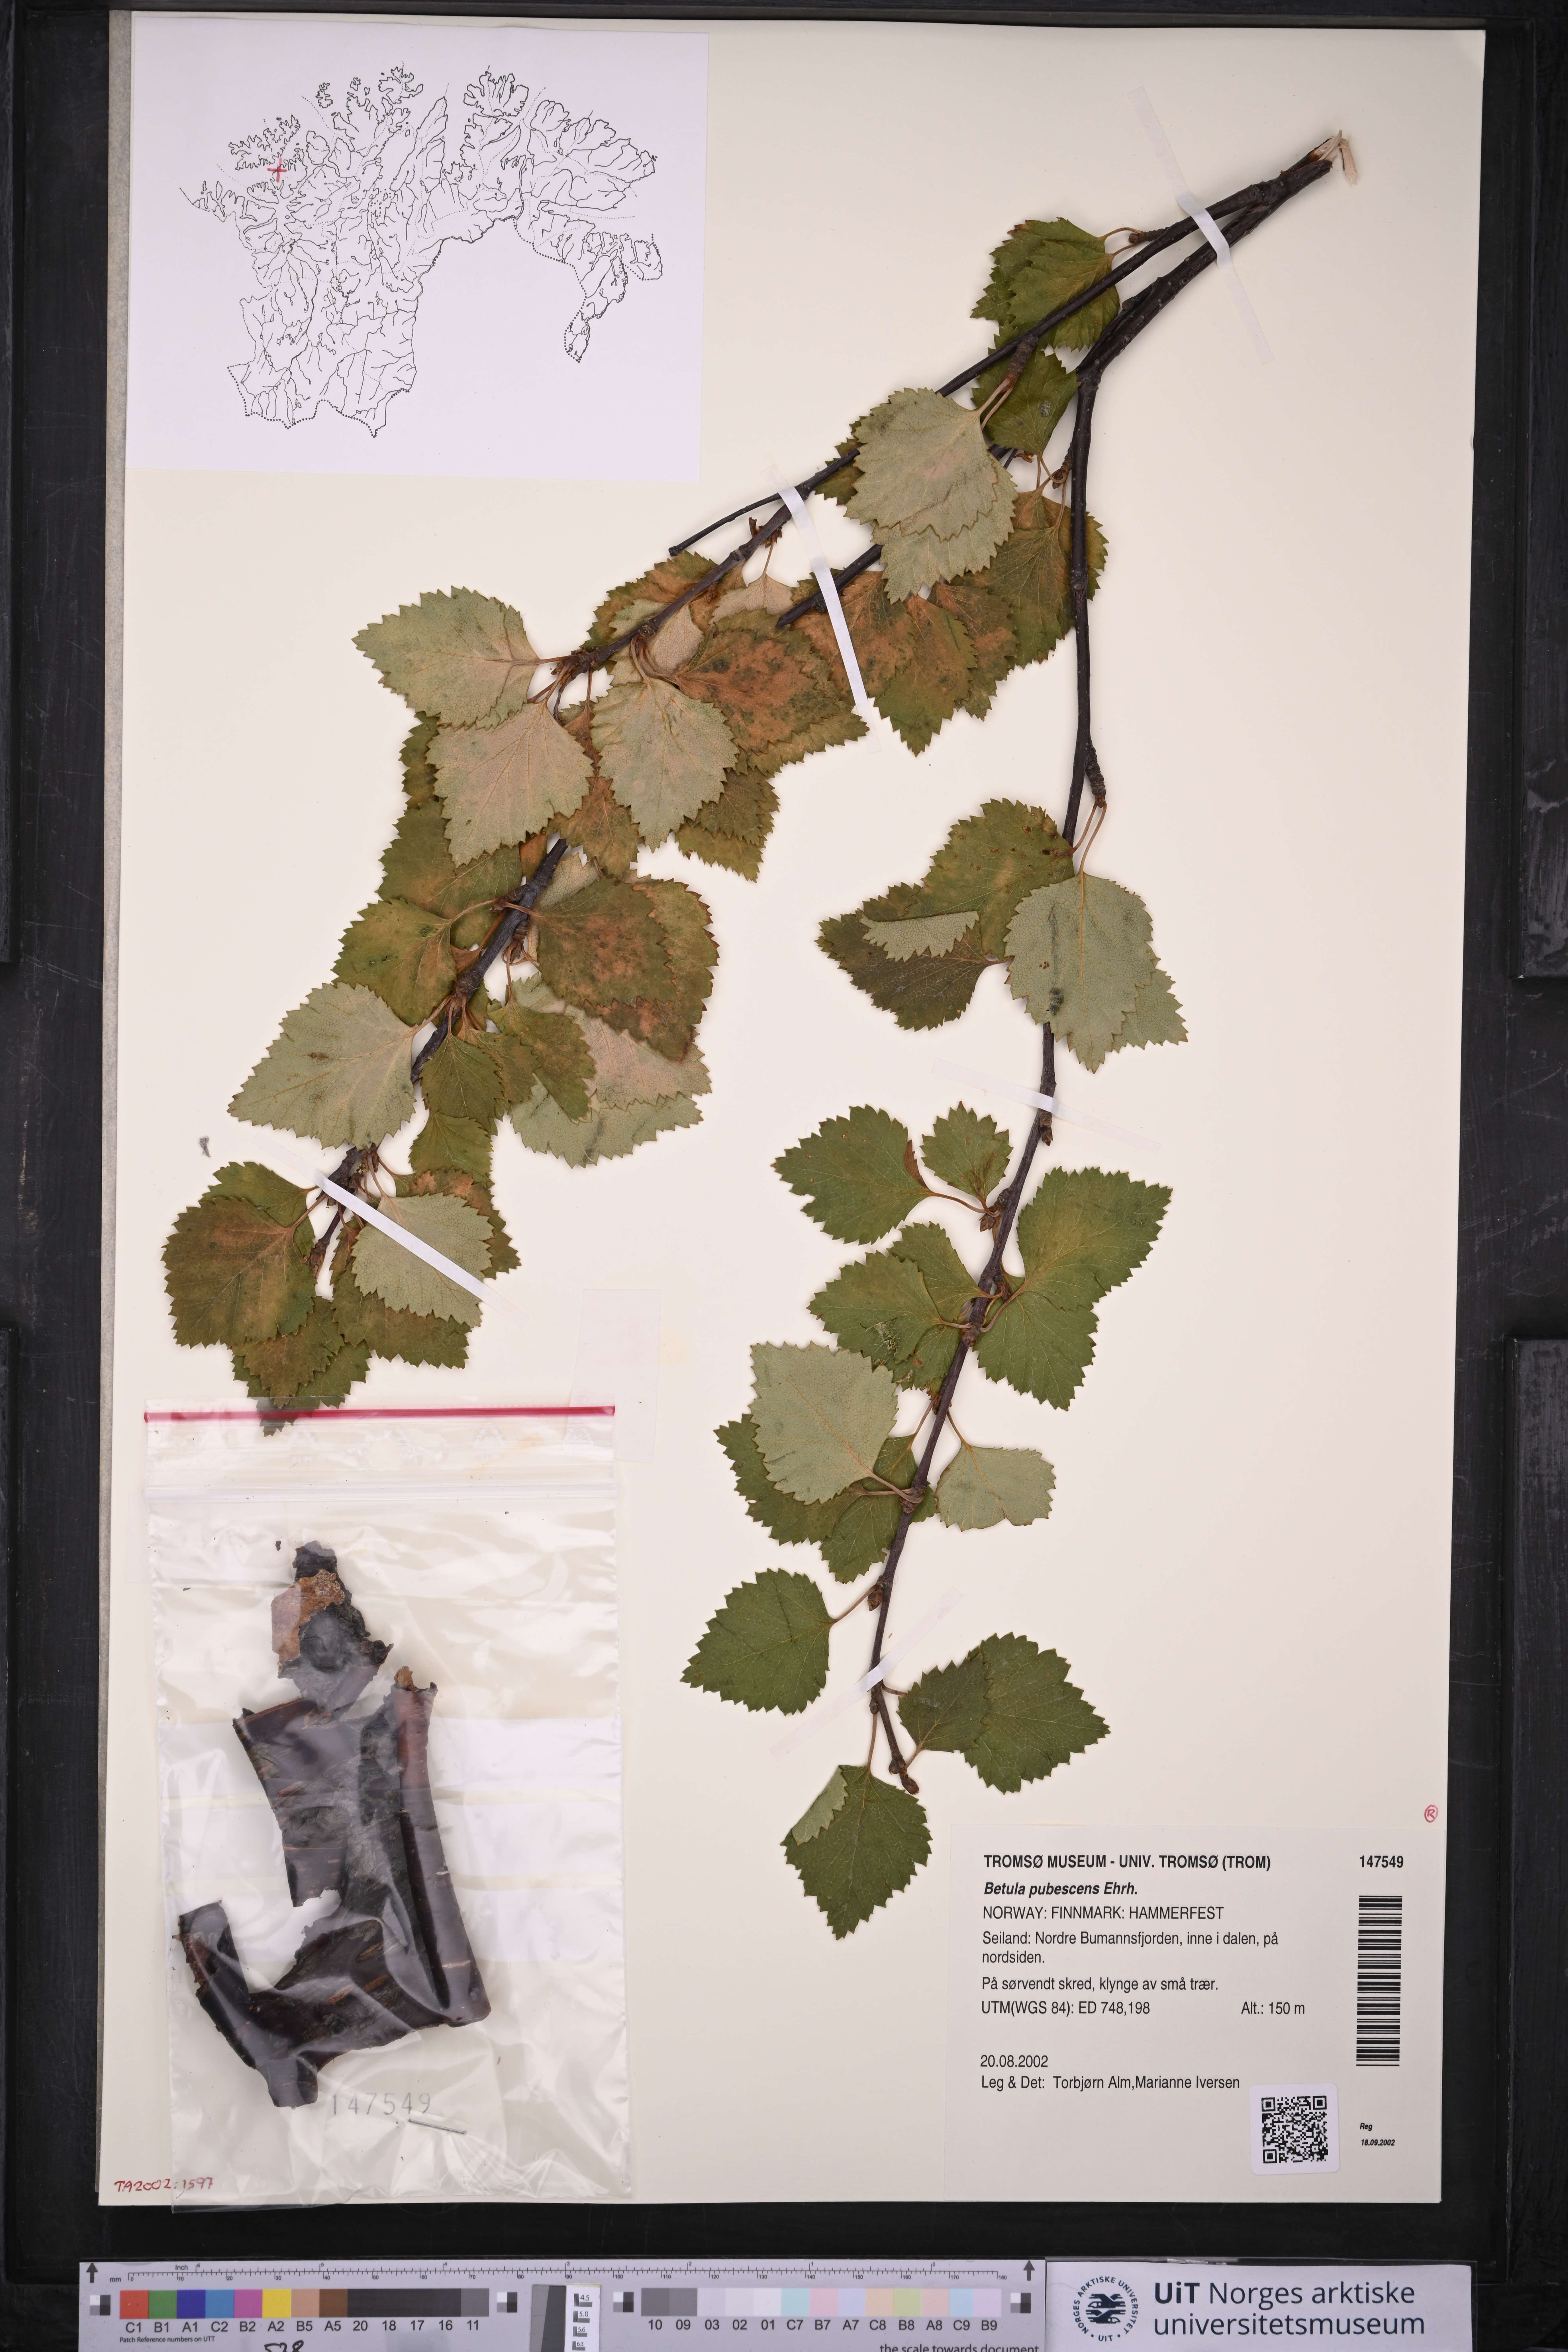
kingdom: Plantae
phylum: Tracheophyta
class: Magnoliopsida
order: Fagales
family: Betulaceae
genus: Betula
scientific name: Betula pubescens
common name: Downy birch
